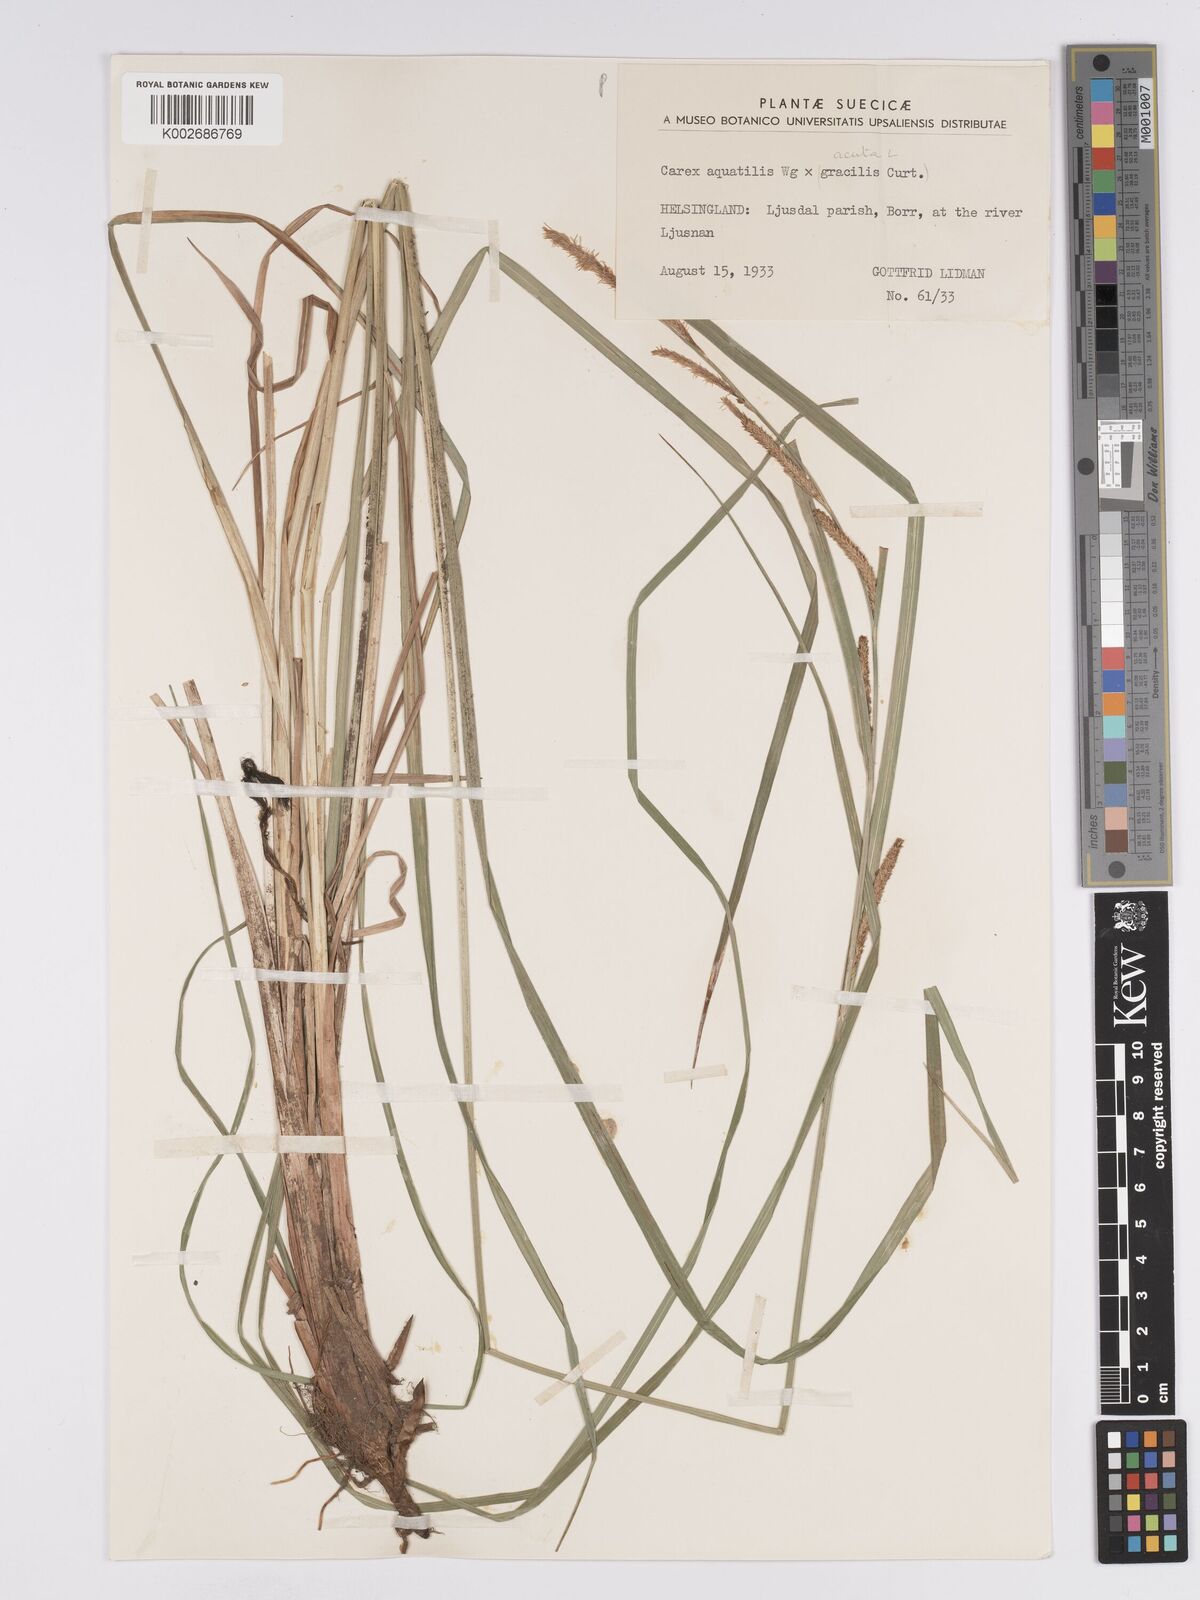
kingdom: Plantae
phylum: Tracheophyta
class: Liliopsida
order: Poales
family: Cyperaceae
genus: Carex
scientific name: Carex grantii
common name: Grant's sedge
